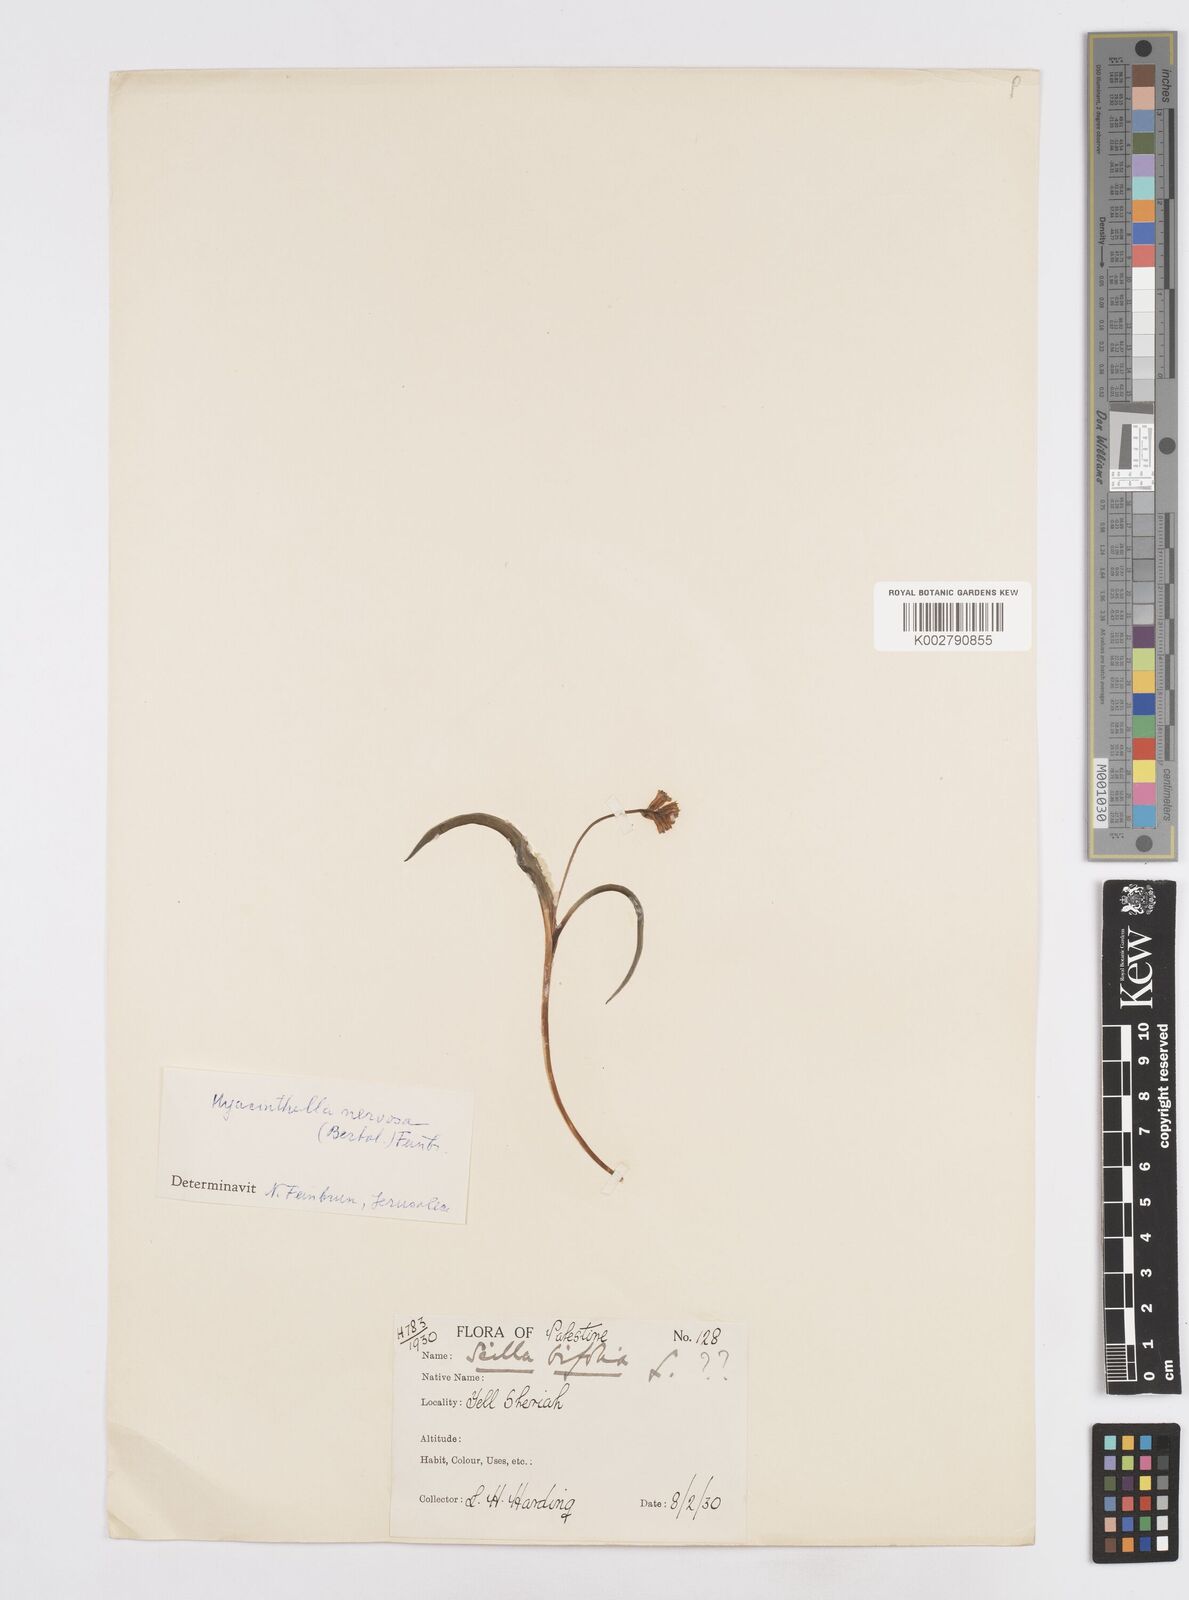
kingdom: Plantae
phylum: Tracheophyta
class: Liliopsida
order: Asparagales
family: Asparagaceae
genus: Scilla
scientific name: Scilla bifolia
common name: Alpine squill
